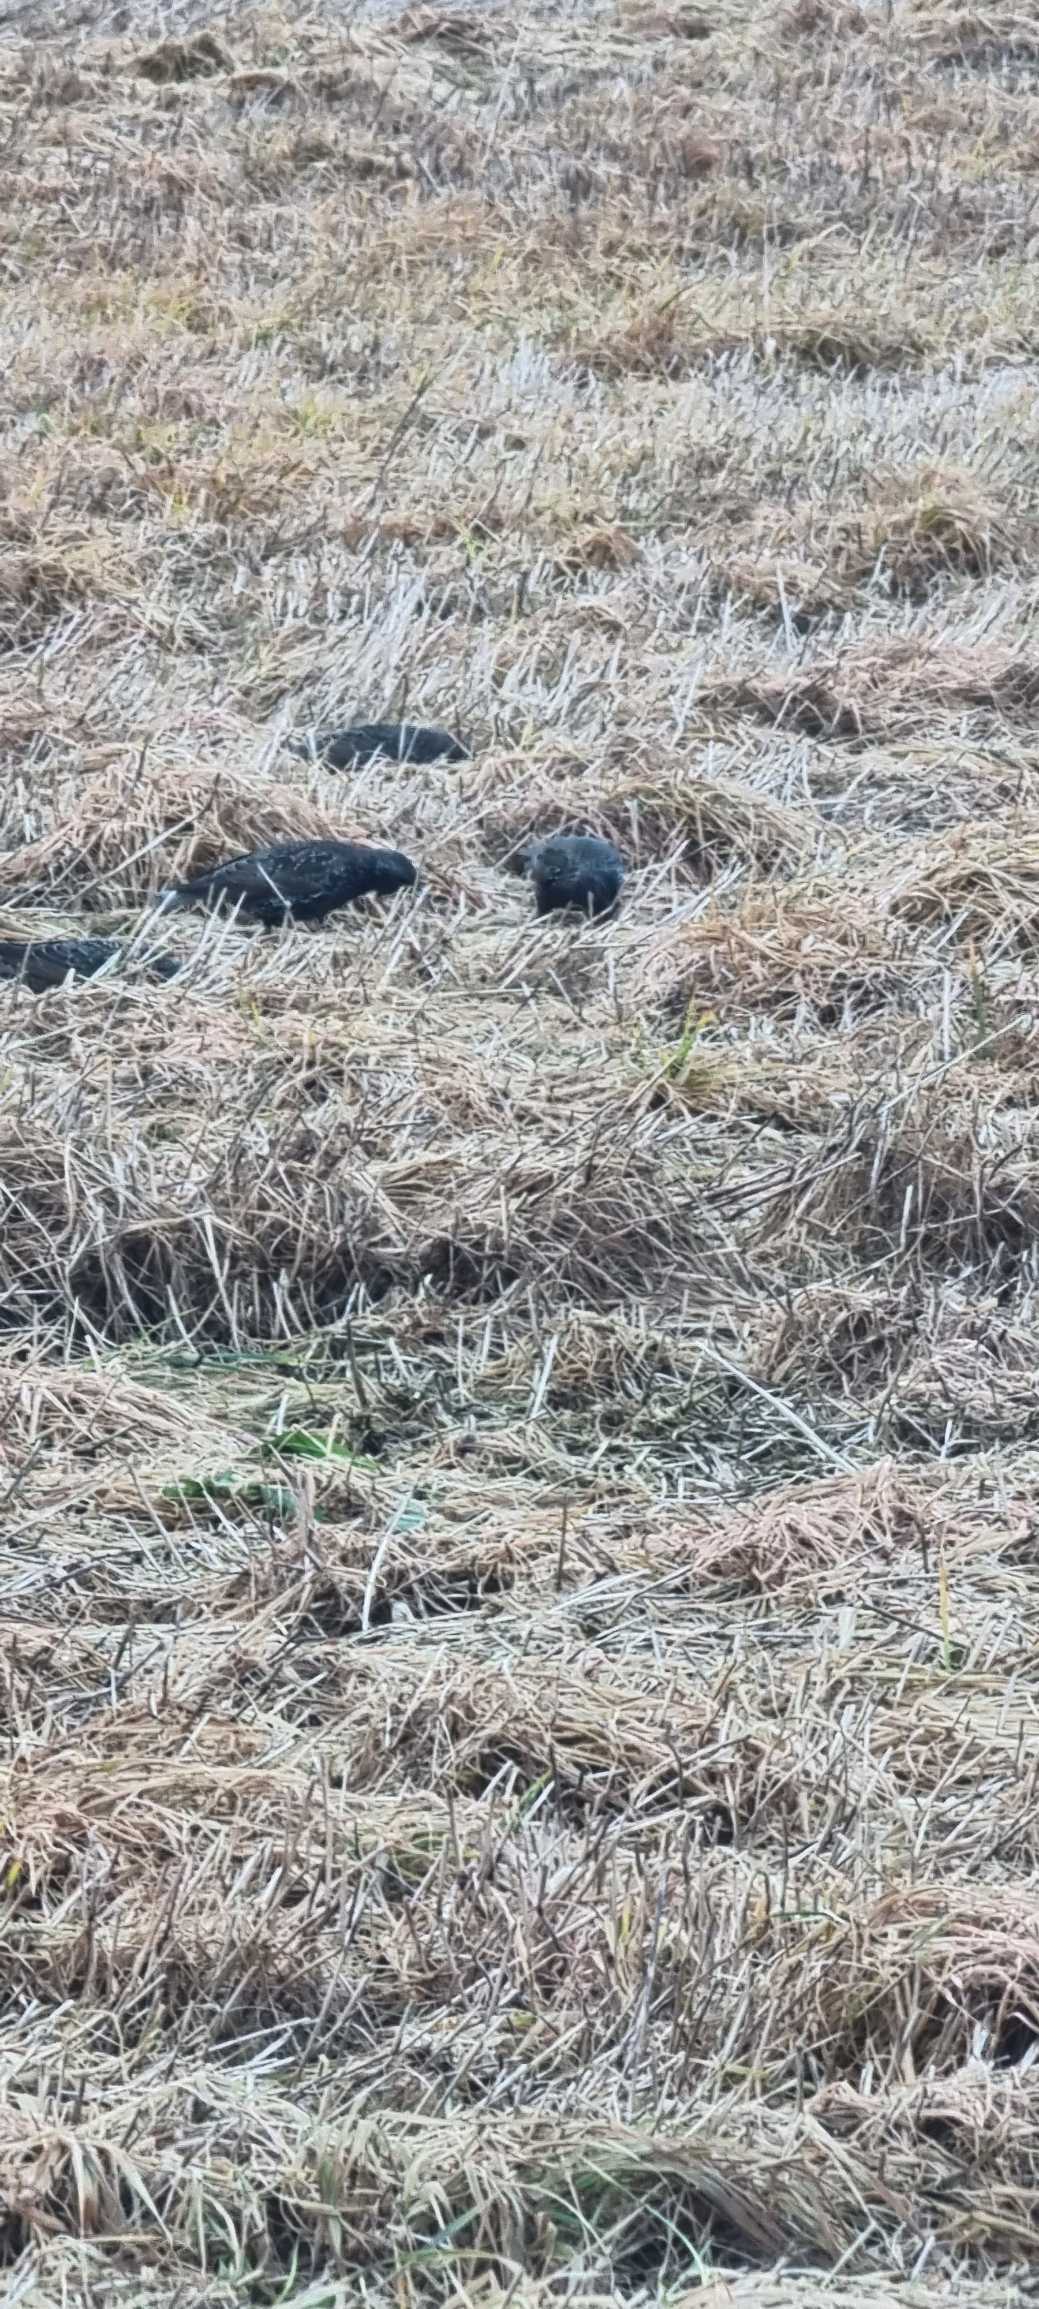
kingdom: Animalia
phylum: Chordata
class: Aves
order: Passeriformes
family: Sturnidae
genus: Sturnus
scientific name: Sturnus vulgaris
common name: Stær
